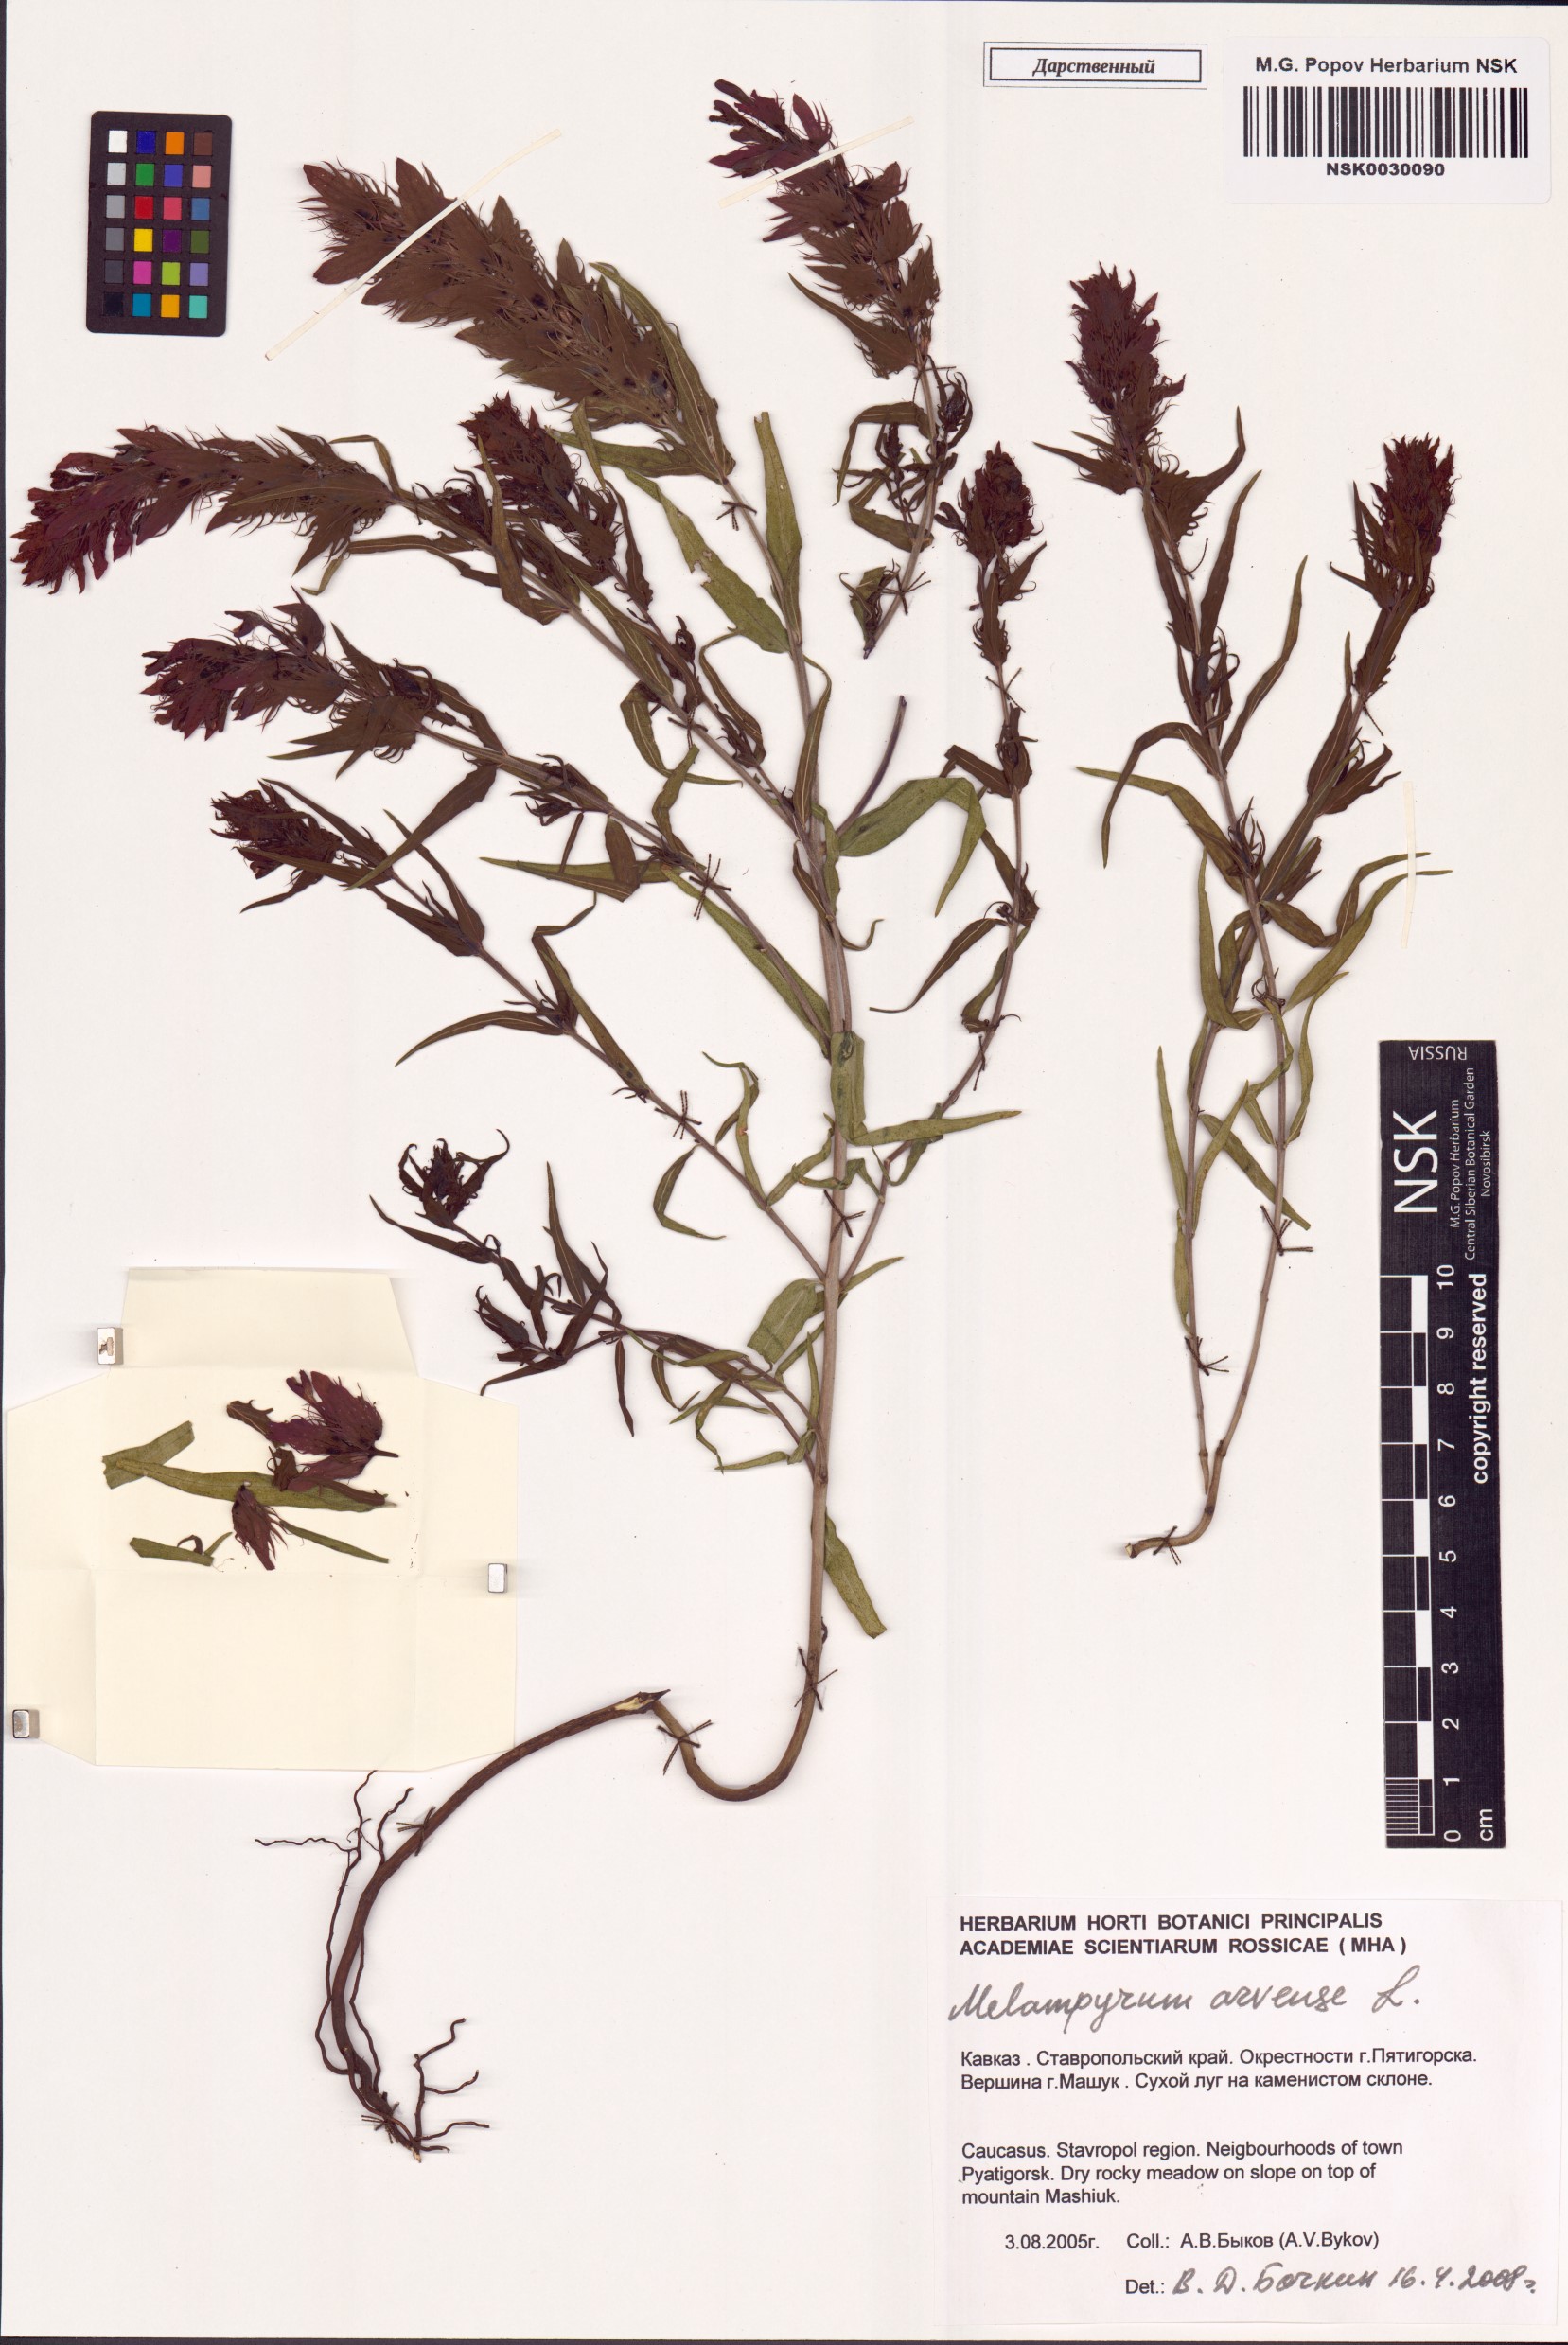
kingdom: Plantae
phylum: Tracheophyta
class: Magnoliopsida
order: Lamiales
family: Orobanchaceae
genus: Melampyrum
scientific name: Melampyrum arvense
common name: Field cow-wheat
